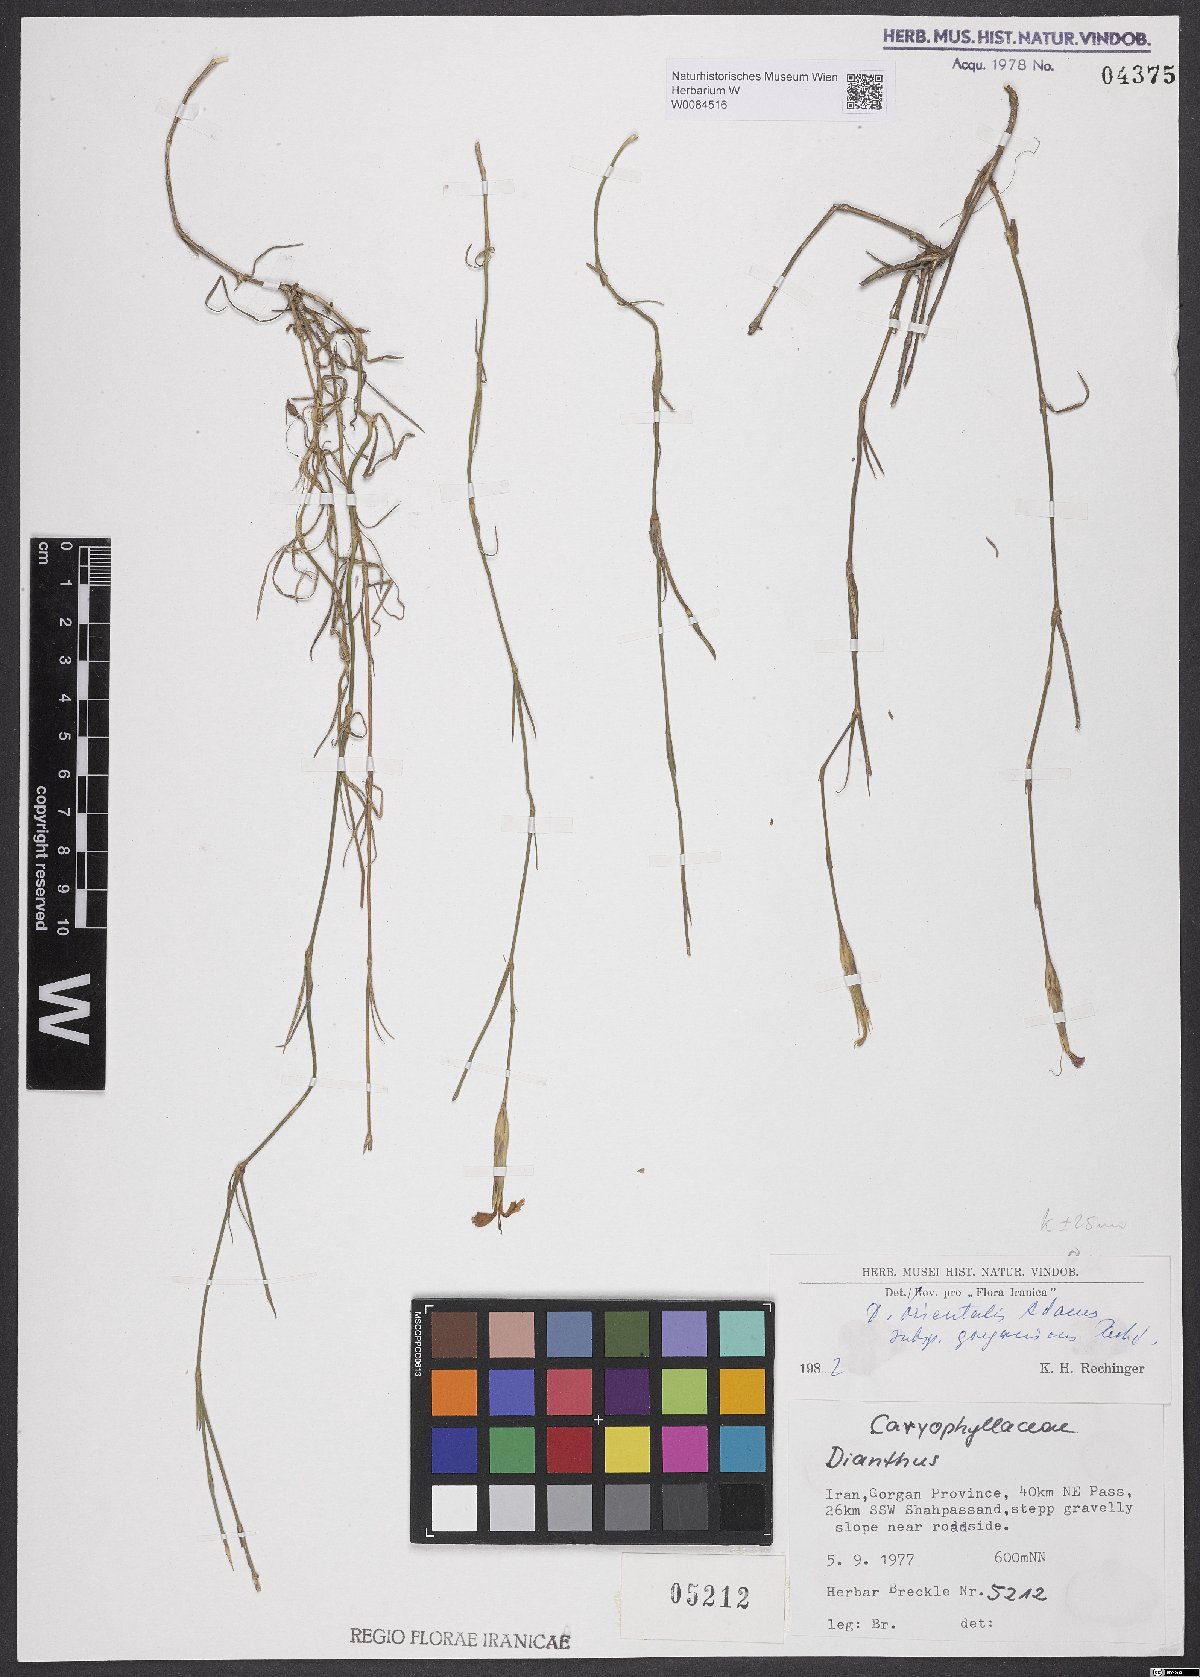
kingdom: Plantae
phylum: Tracheophyta
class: Magnoliopsida
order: Caryophyllales
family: Caryophyllaceae
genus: Dianthus
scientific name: Dianthus orientalis
